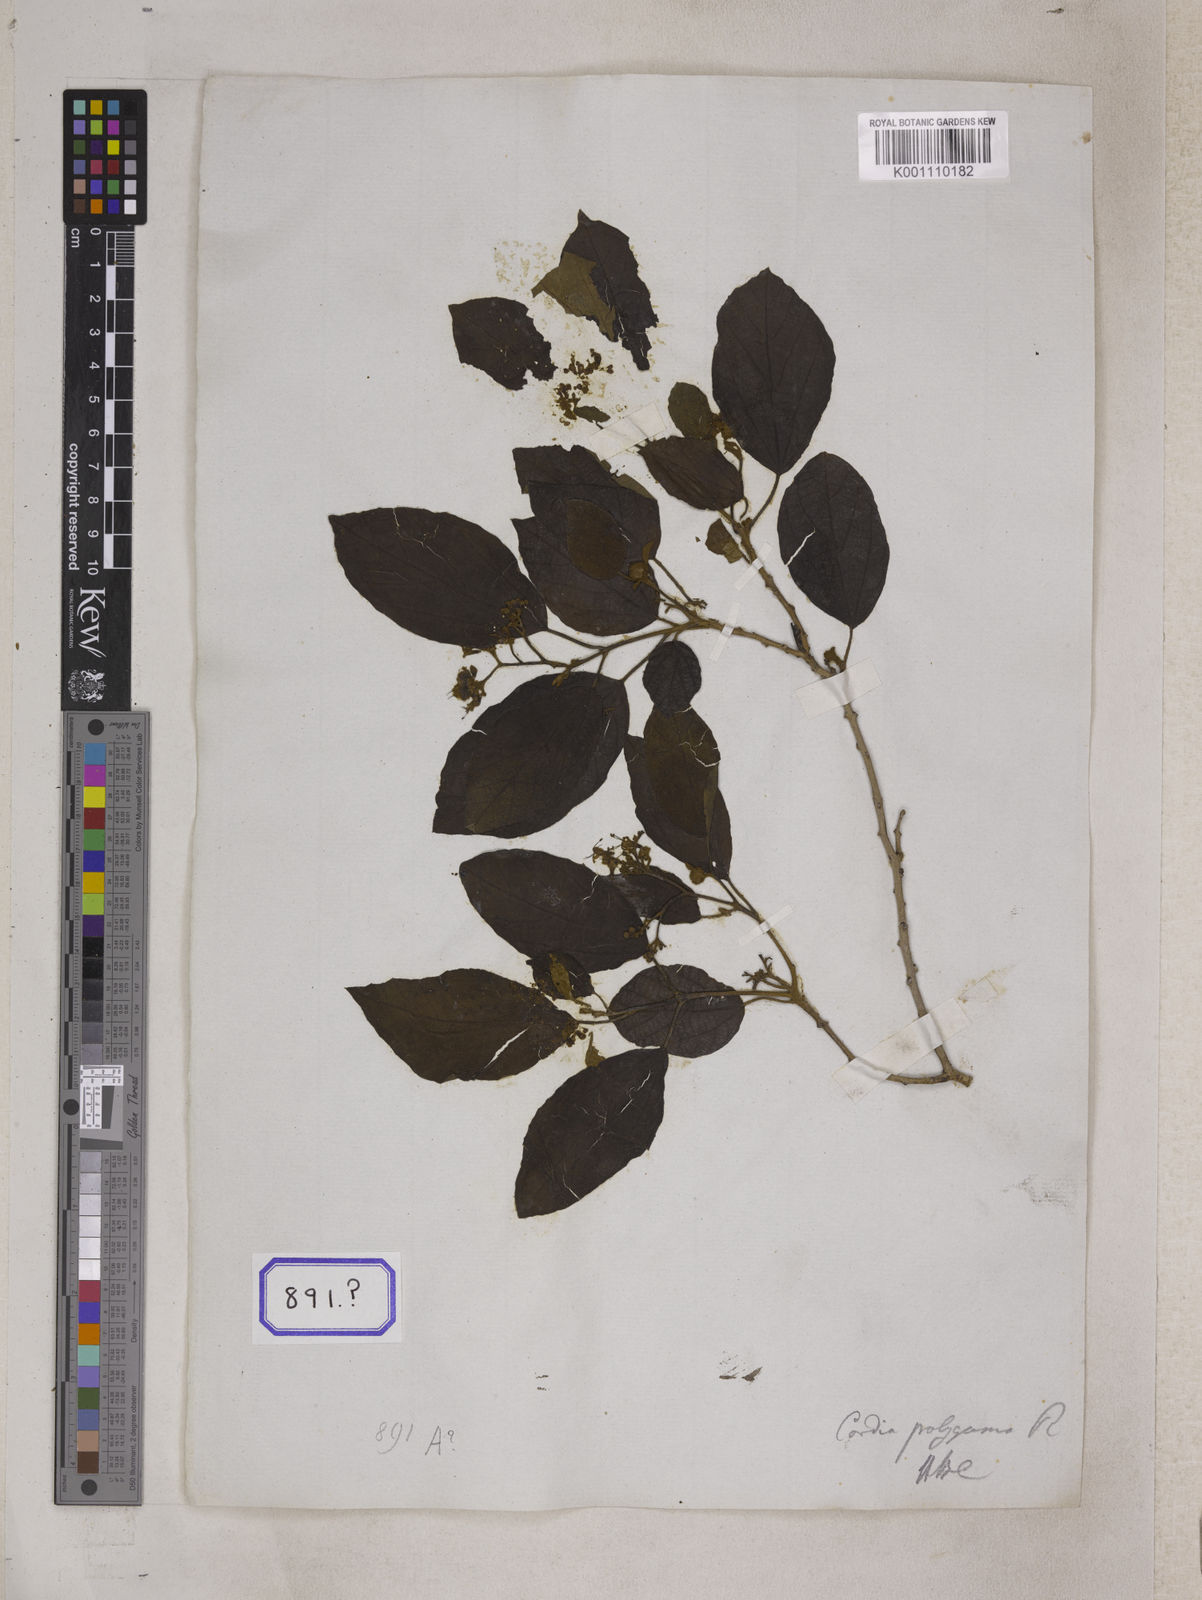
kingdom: Plantae
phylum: Tracheophyta
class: Magnoliopsida
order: Boraginales
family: Cordiaceae
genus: Cordia
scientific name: Cordia monoica
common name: Snot berry
